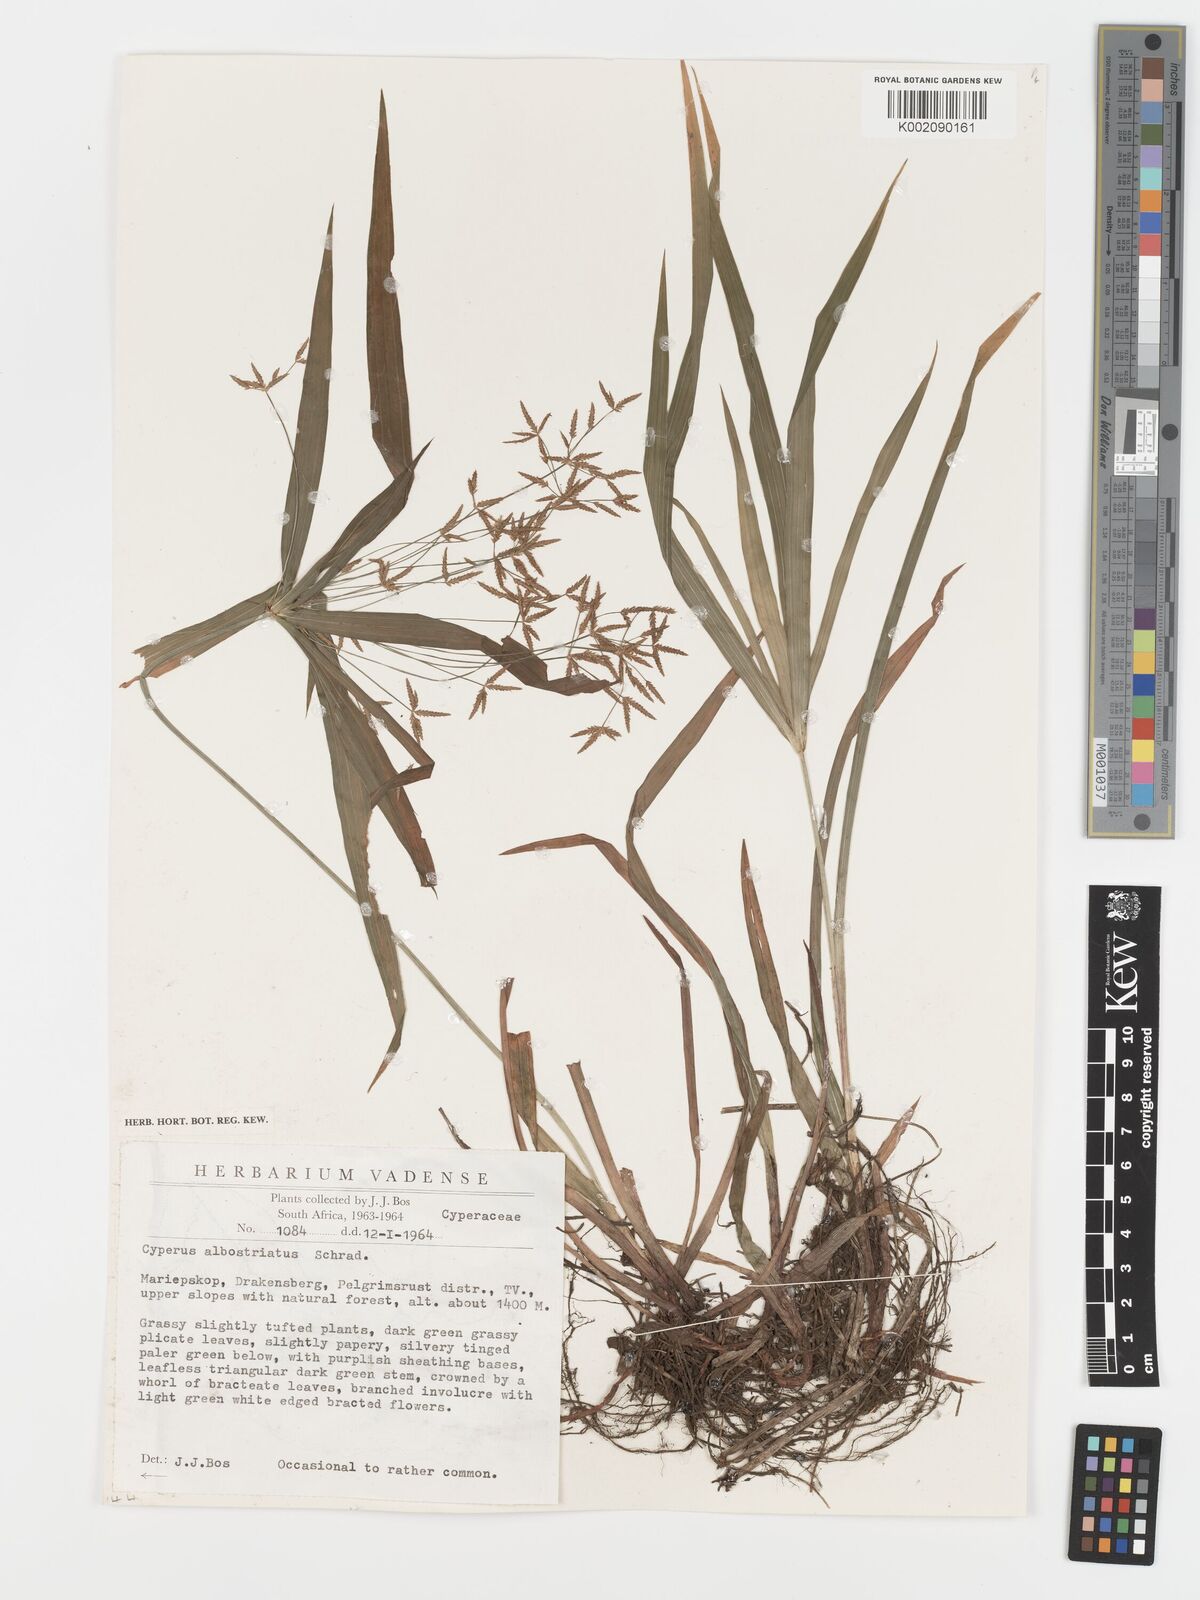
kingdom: Plantae
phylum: Tracheophyta
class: Liliopsida
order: Poales
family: Cyperaceae
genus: Cyperus
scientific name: Cyperus albostriatus
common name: Dwarf umbrella-grass
